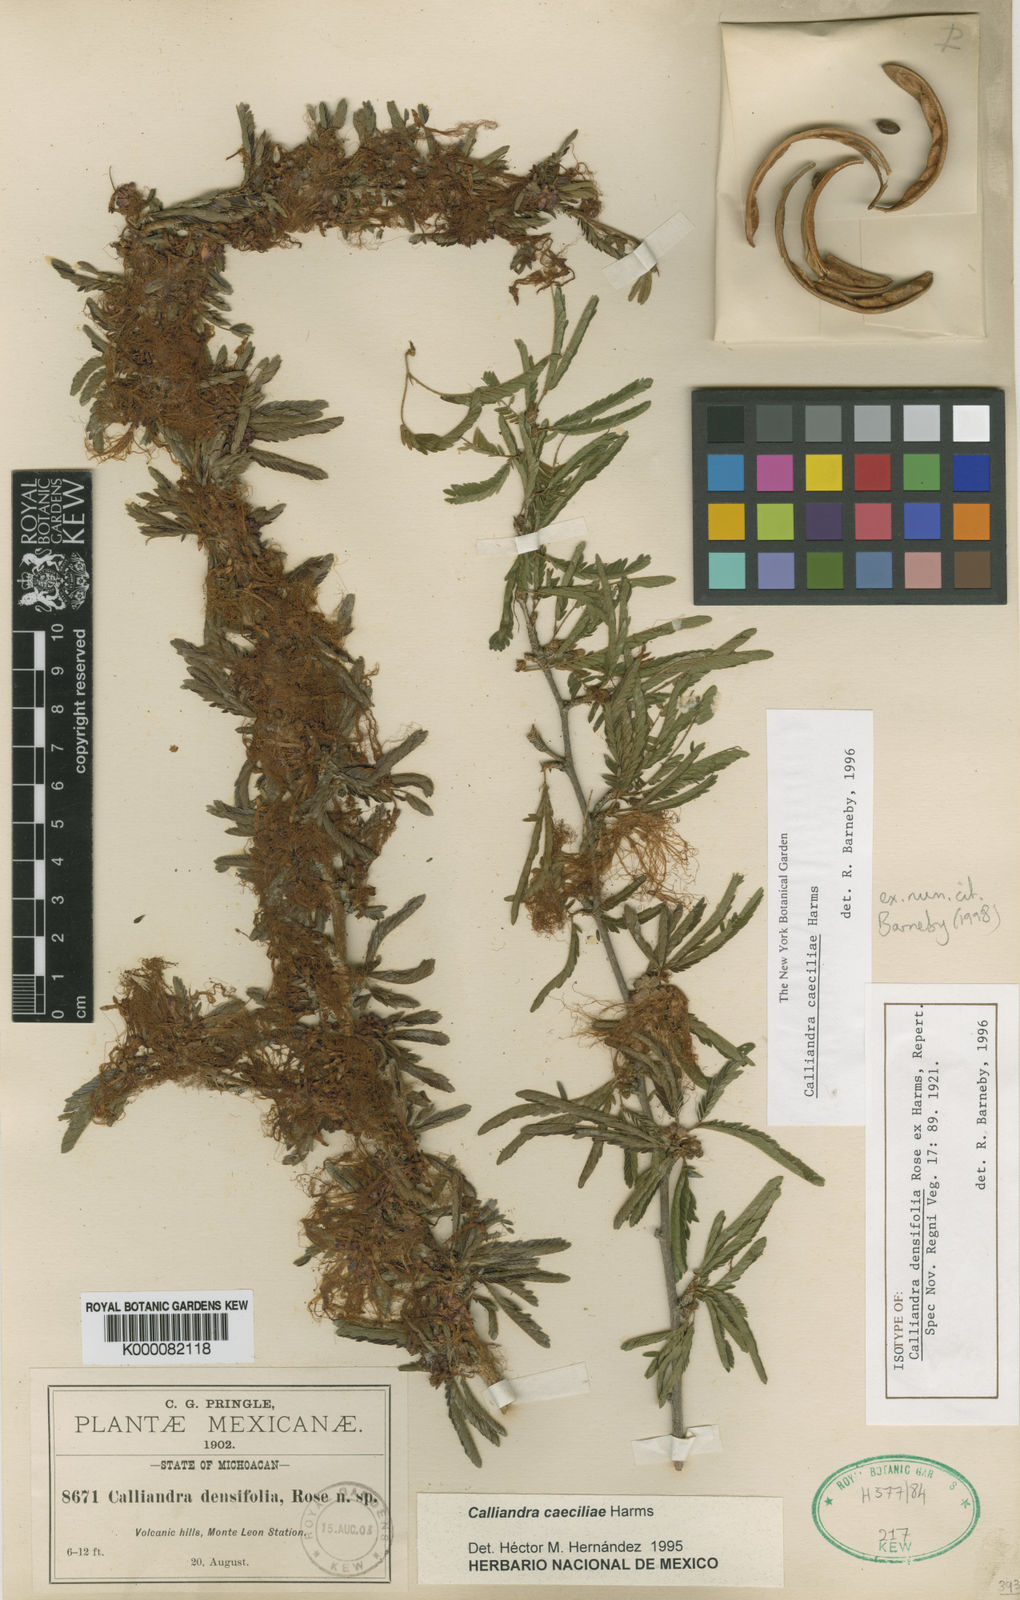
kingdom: Plantae
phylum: Tracheophyta
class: Magnoliopsida
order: Fabales
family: Fabaceae
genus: Calliandra
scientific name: Calliandra caeciliae
